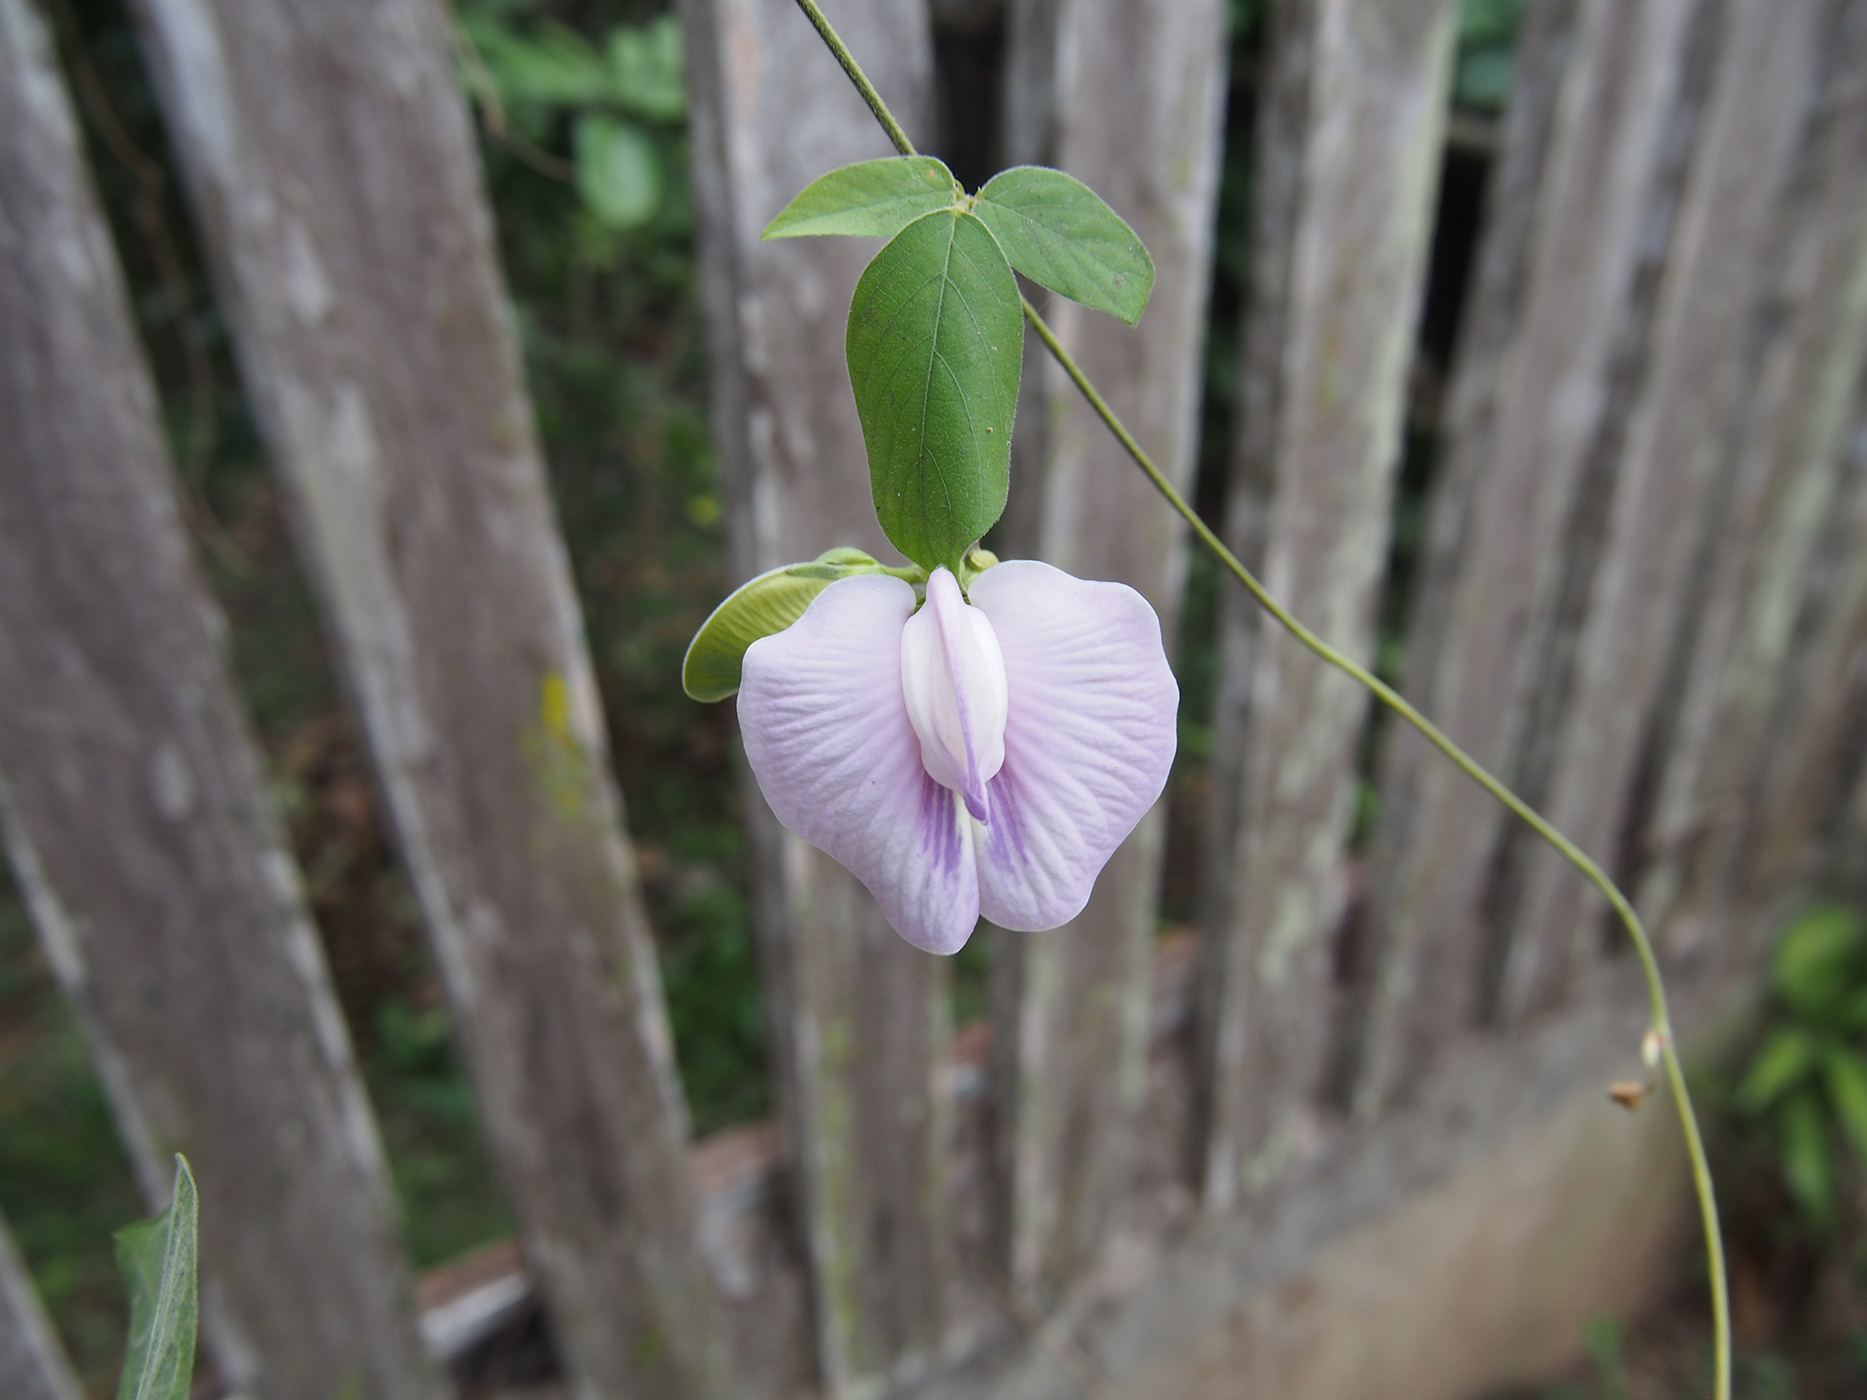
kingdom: Plantae
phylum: Tracheophyta
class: Magnoliopsida
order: Fabales
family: Fabaceae
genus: Centrosema
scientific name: Centrosema pubescens
